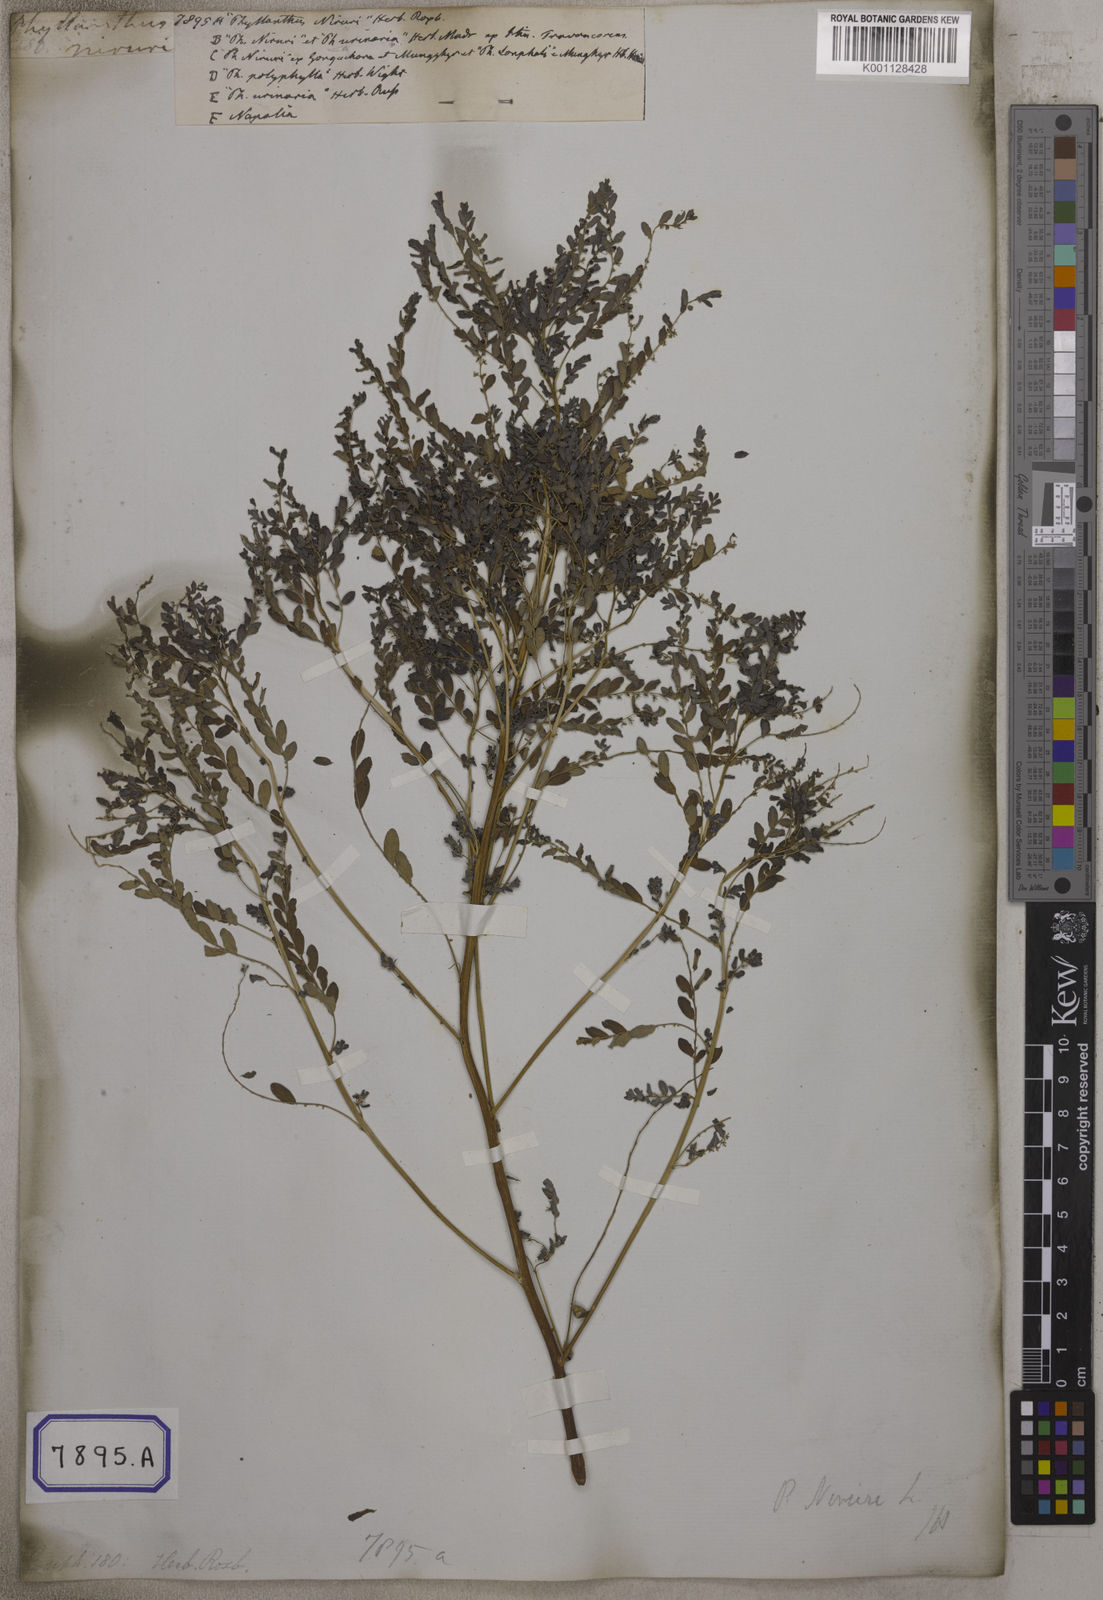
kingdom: Plantae
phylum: Tracheophyta
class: Magnoliopsida
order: Malpighiales
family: Euphorbiaceae
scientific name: Euphorbiaceae
